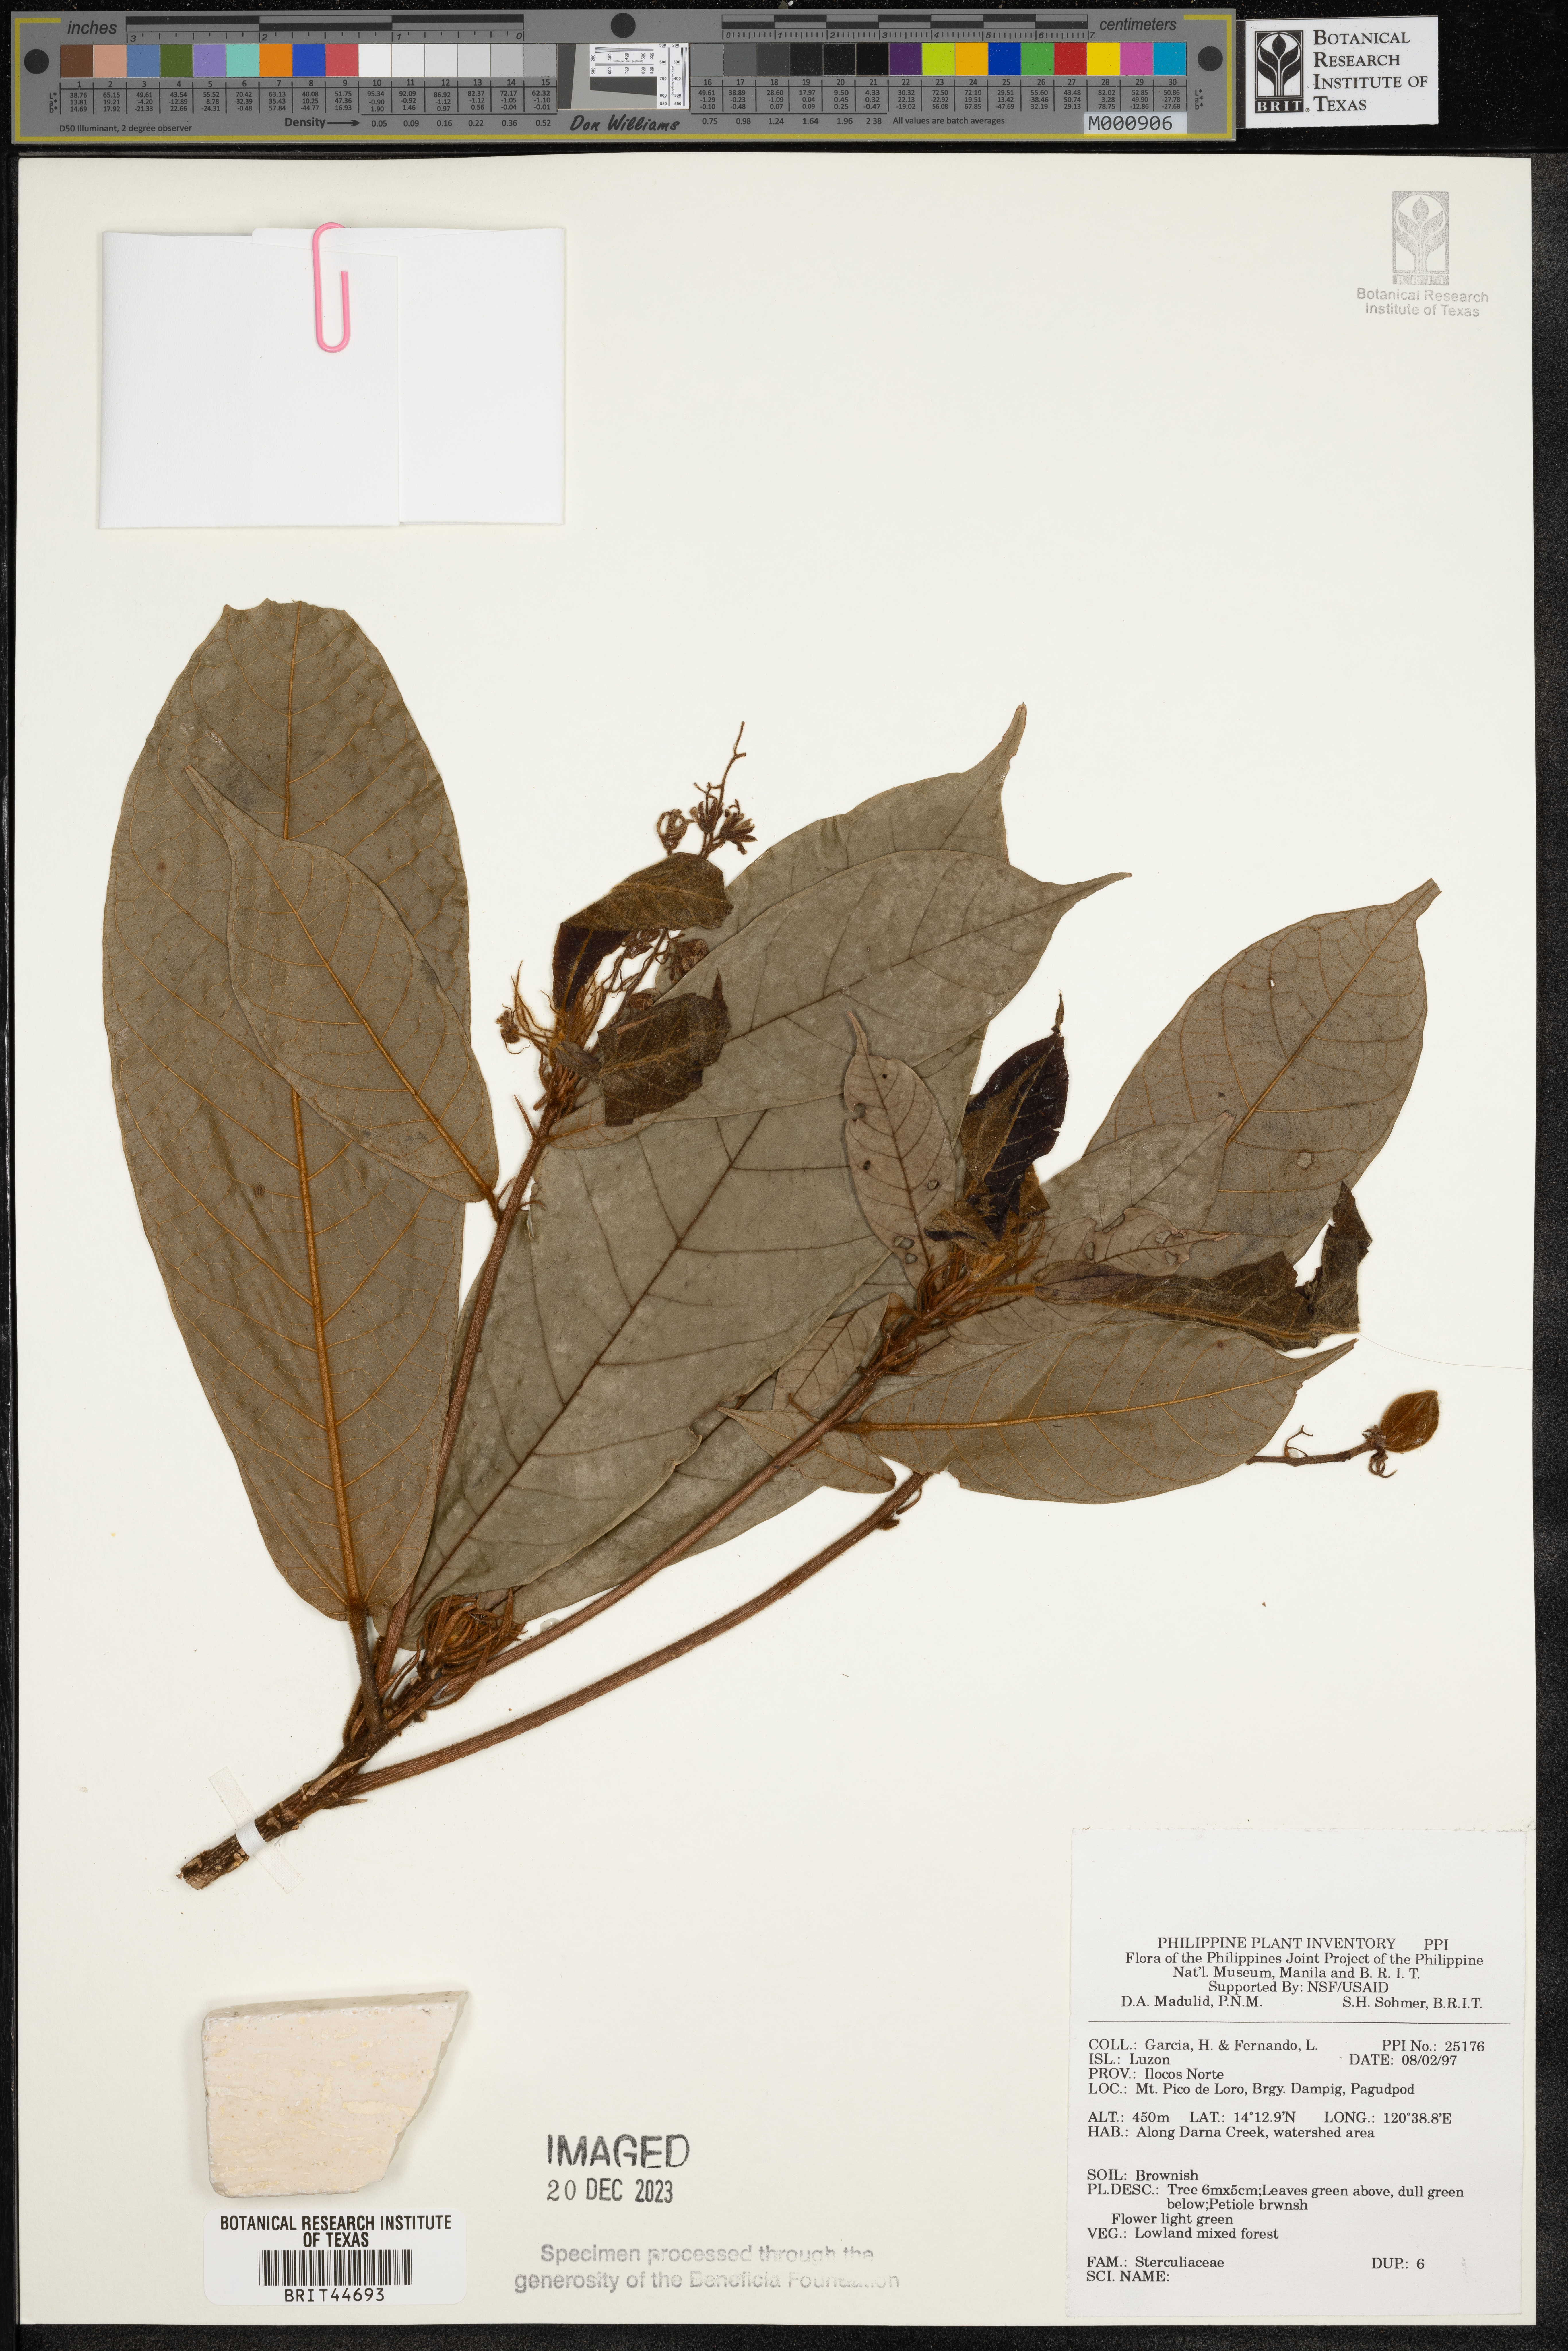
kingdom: Plantae
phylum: Tracheophyta
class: Magnoliopsida
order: Malvales
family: Sterculiaceae
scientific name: Sterculiaceae
